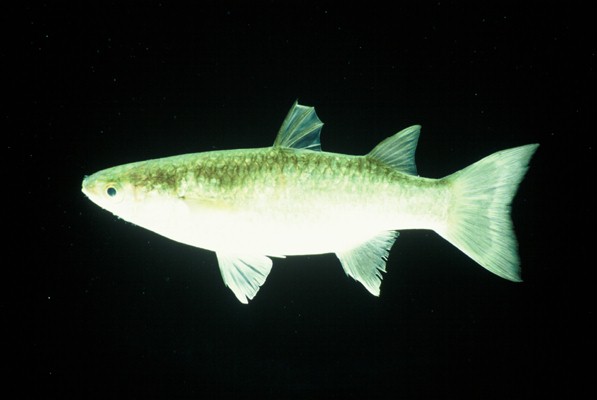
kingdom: Animalia
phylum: Chordata
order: Mugiliformes
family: Mugilidae
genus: Planiliza
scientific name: Planiliza melinopterus
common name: Otomebora mullet
